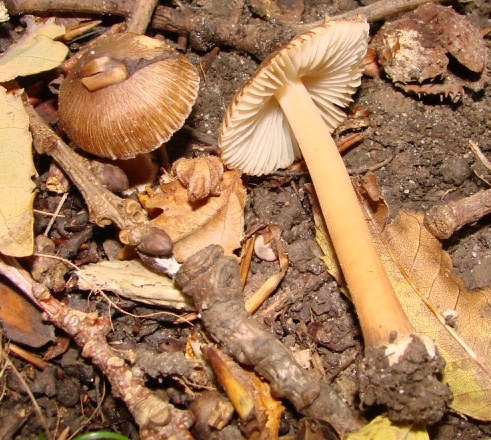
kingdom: Fungi
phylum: Basidiomycota
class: Agaricomycetes
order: Agaricales
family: Inocybaceae
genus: Inocybe
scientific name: Inocybe asterospora
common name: stjernesporet trævlhat
